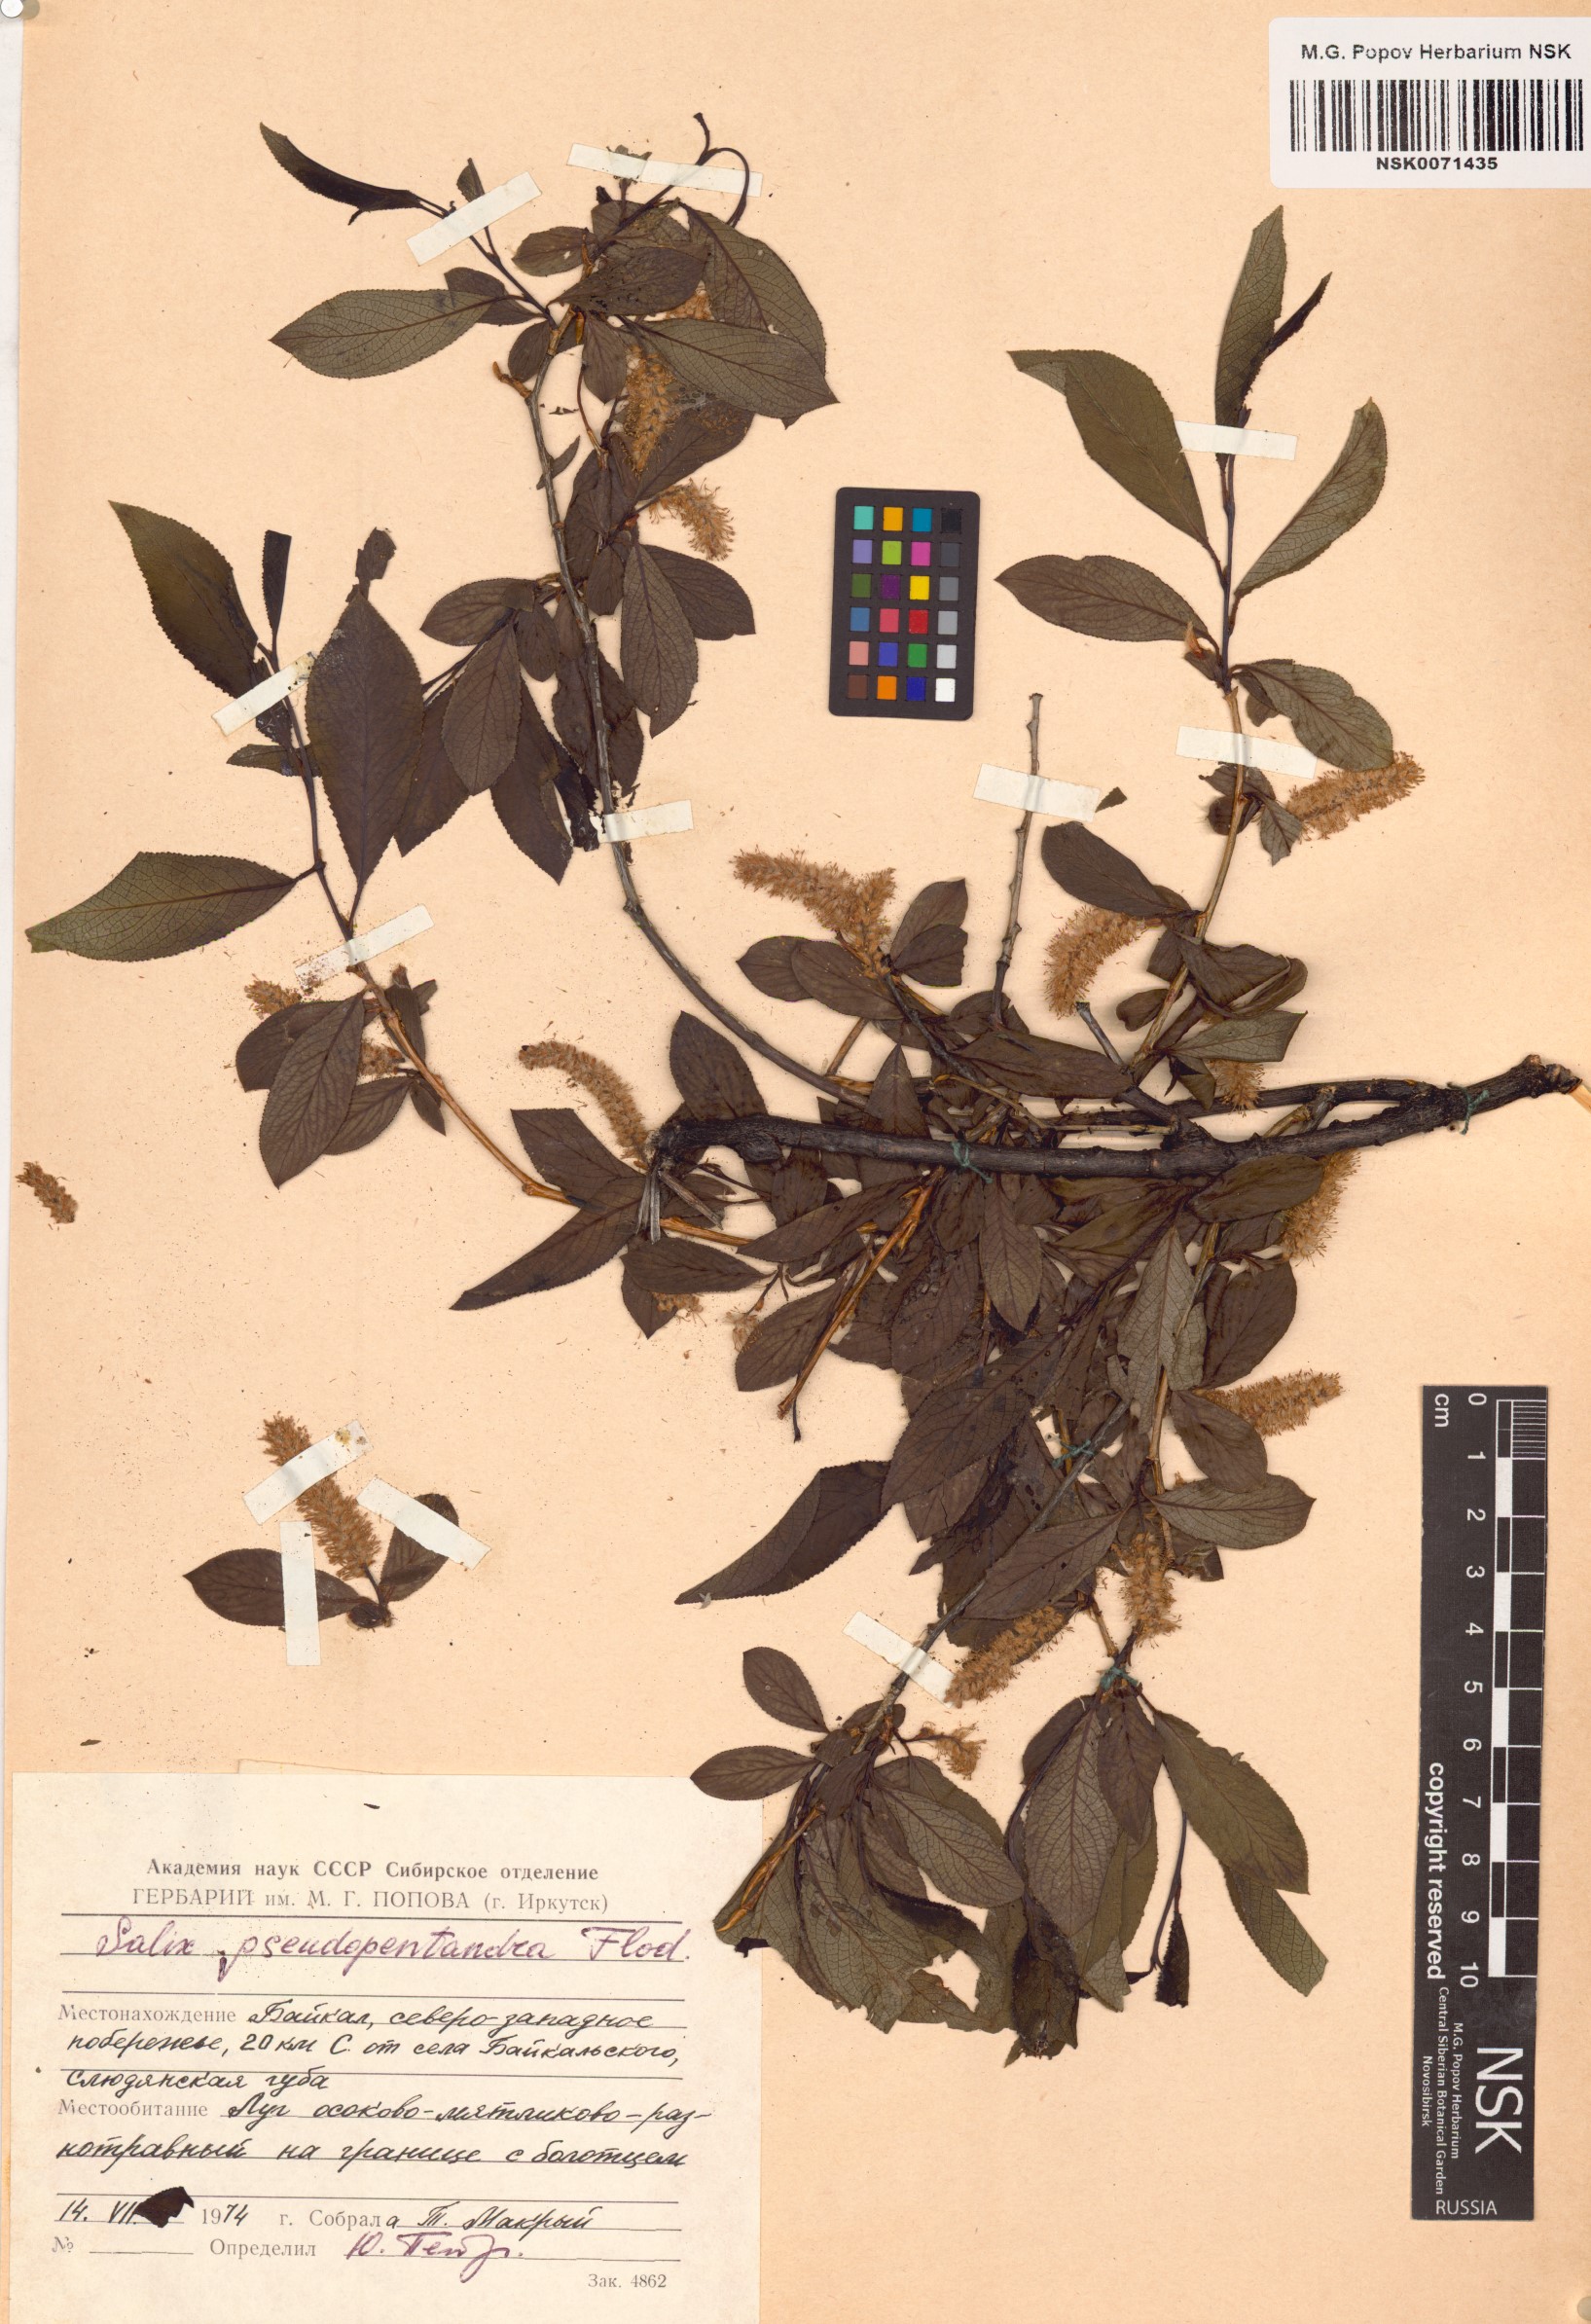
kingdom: Plantae
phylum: Tracheophyta
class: Magnoliopsida
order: Malpighiales
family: Salicaceae
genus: Salix
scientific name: Salix pseudopentandra
